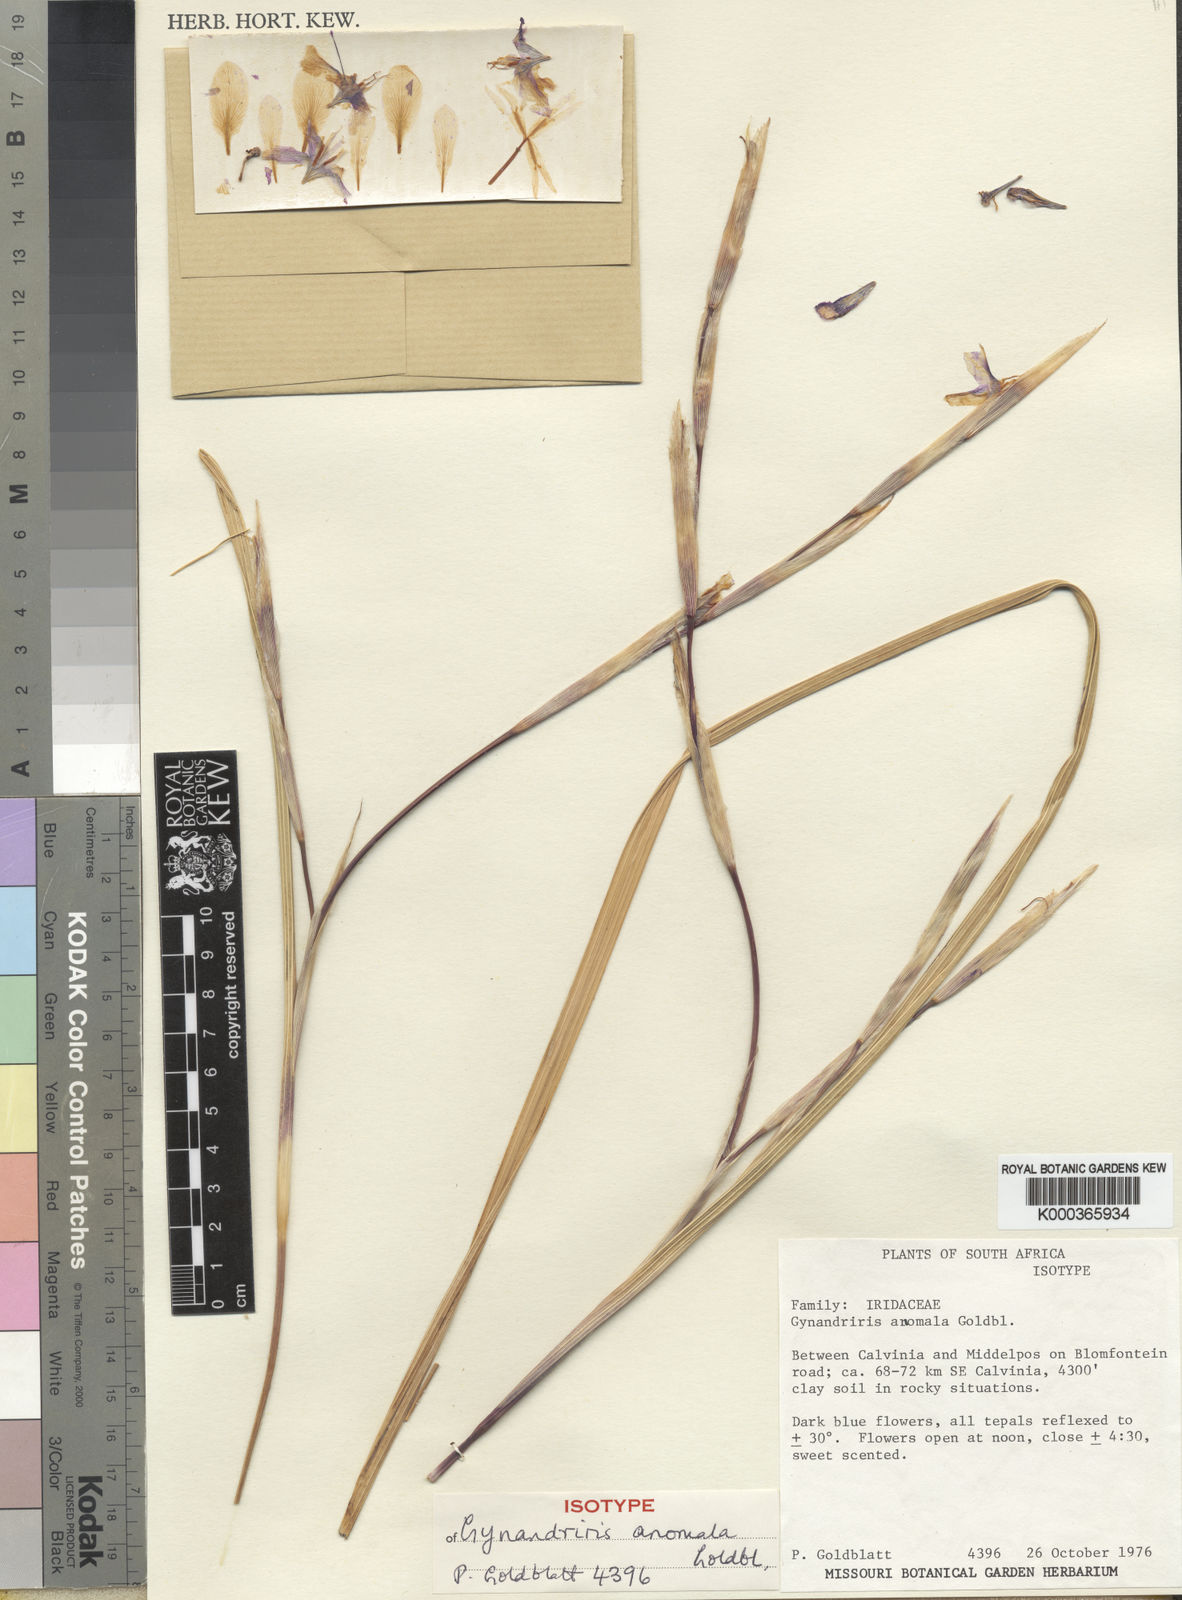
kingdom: Plantae
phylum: Tracheophyta
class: Liliopsida
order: Asparagales
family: Iridaceae
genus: Moraea
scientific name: Moraea contorta
